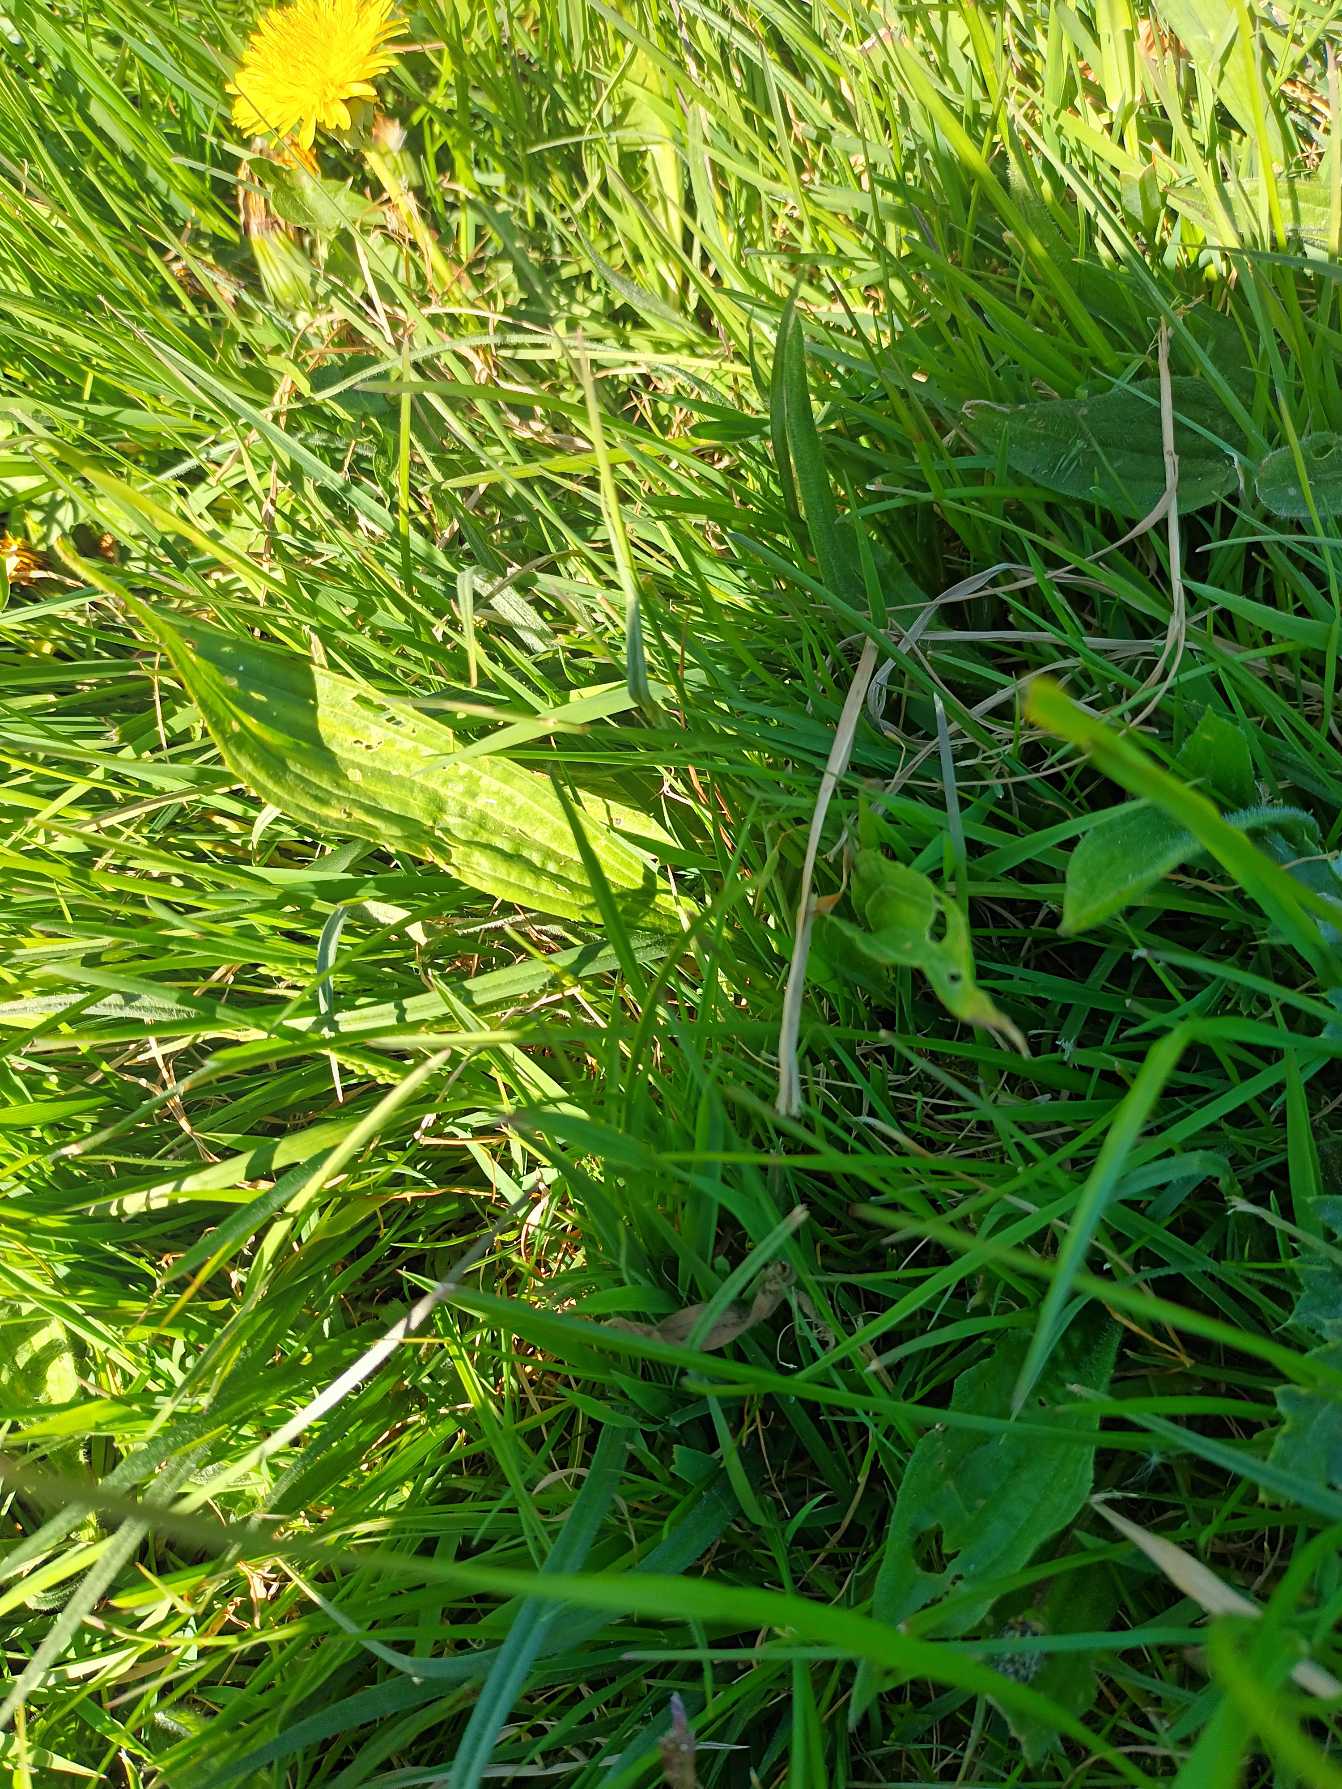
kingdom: Plantae
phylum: Tracheophyta
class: Magnoliopsida
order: Lamiales
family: Plantaginaceae
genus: Plantago
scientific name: Plantago lanceolata
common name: Lancet-vejbred
